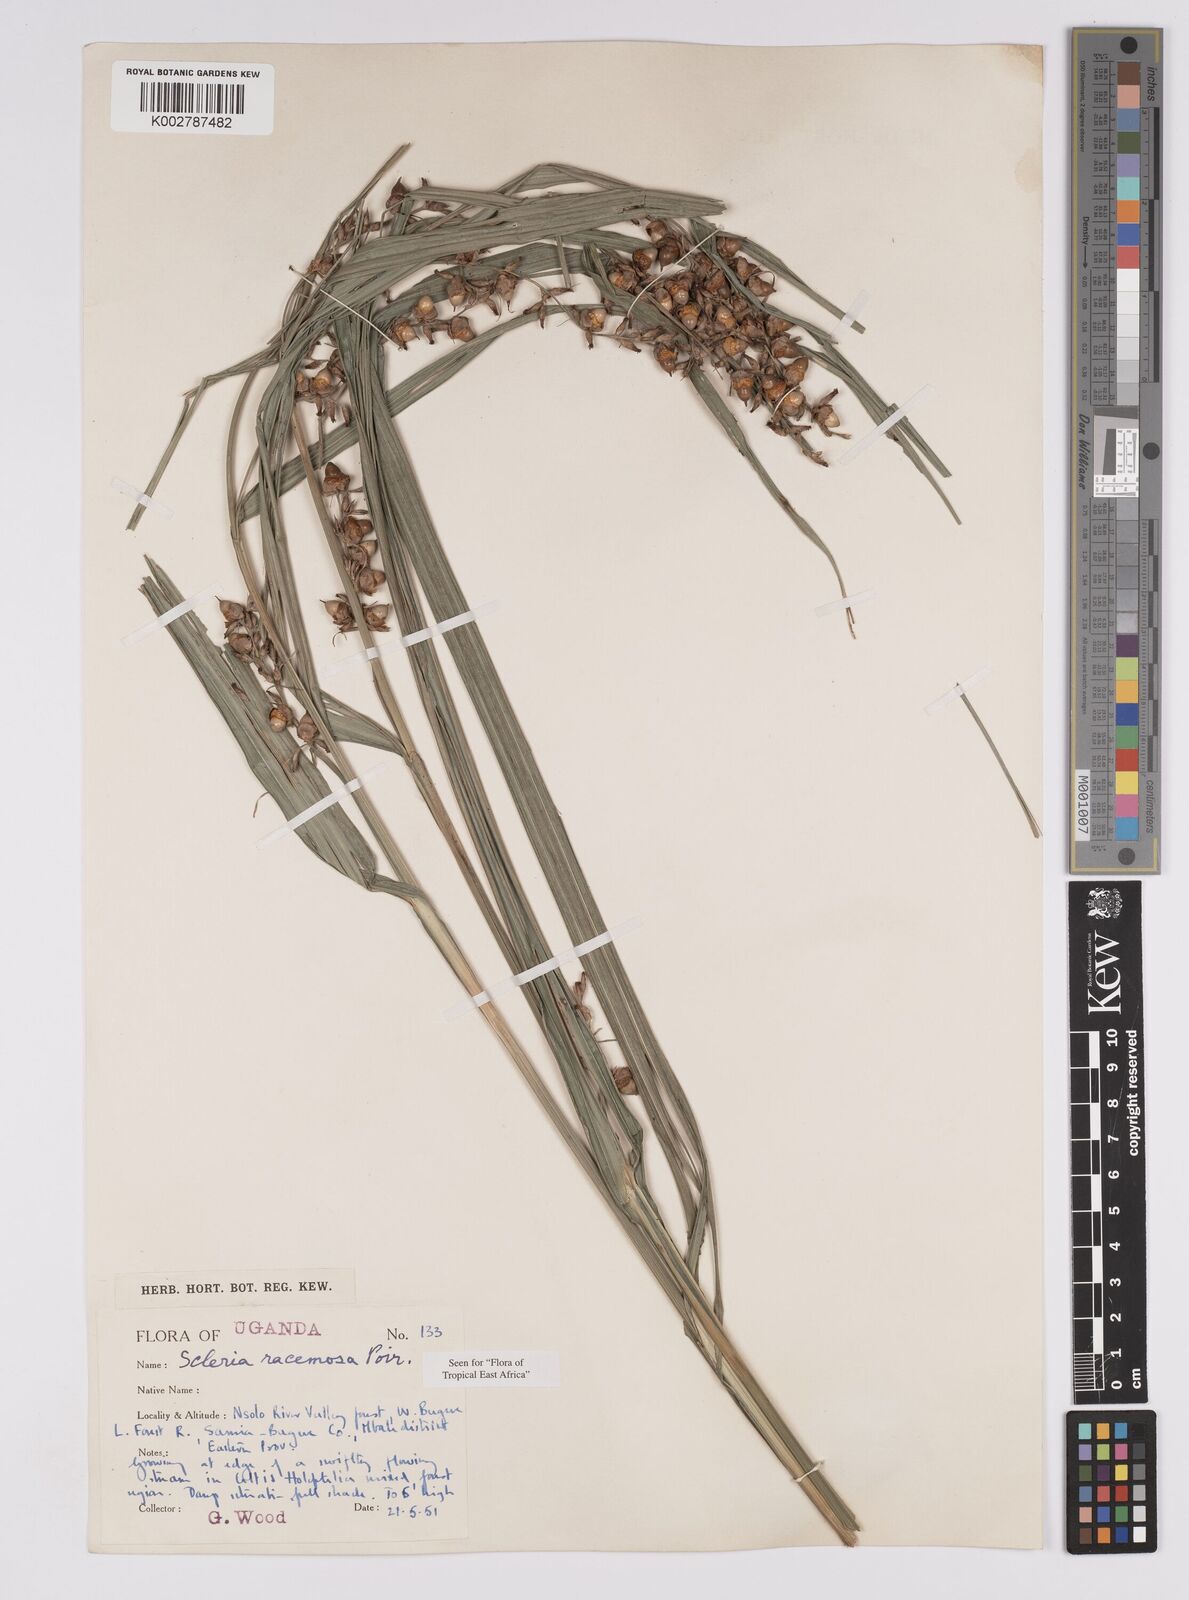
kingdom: Plantae
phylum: Tracheophyta
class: Liliopsida
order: Poales
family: Cyperaceae
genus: Scleria
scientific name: Scleria racemosa
